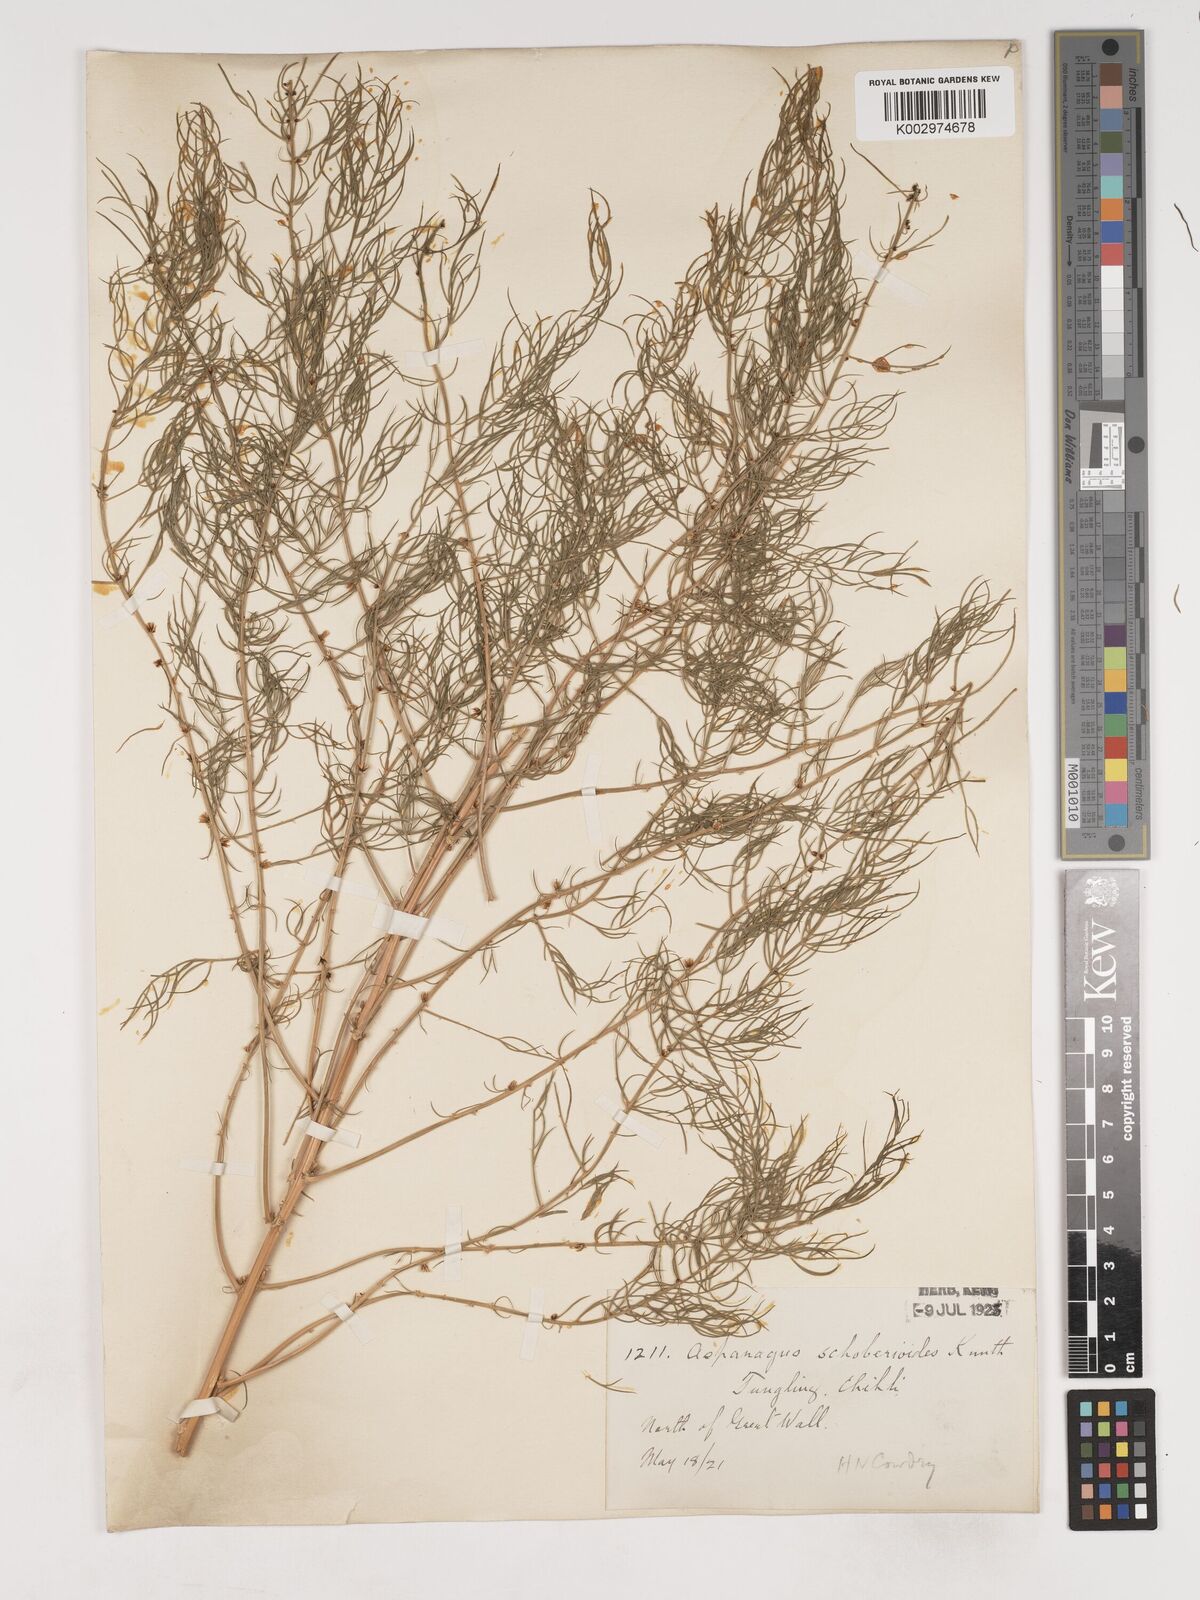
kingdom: Plantae
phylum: Tracheophyta
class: Liliopsida
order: Asparagales
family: Asparagaceae
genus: Asparagus
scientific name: Asparagus schoberioides
